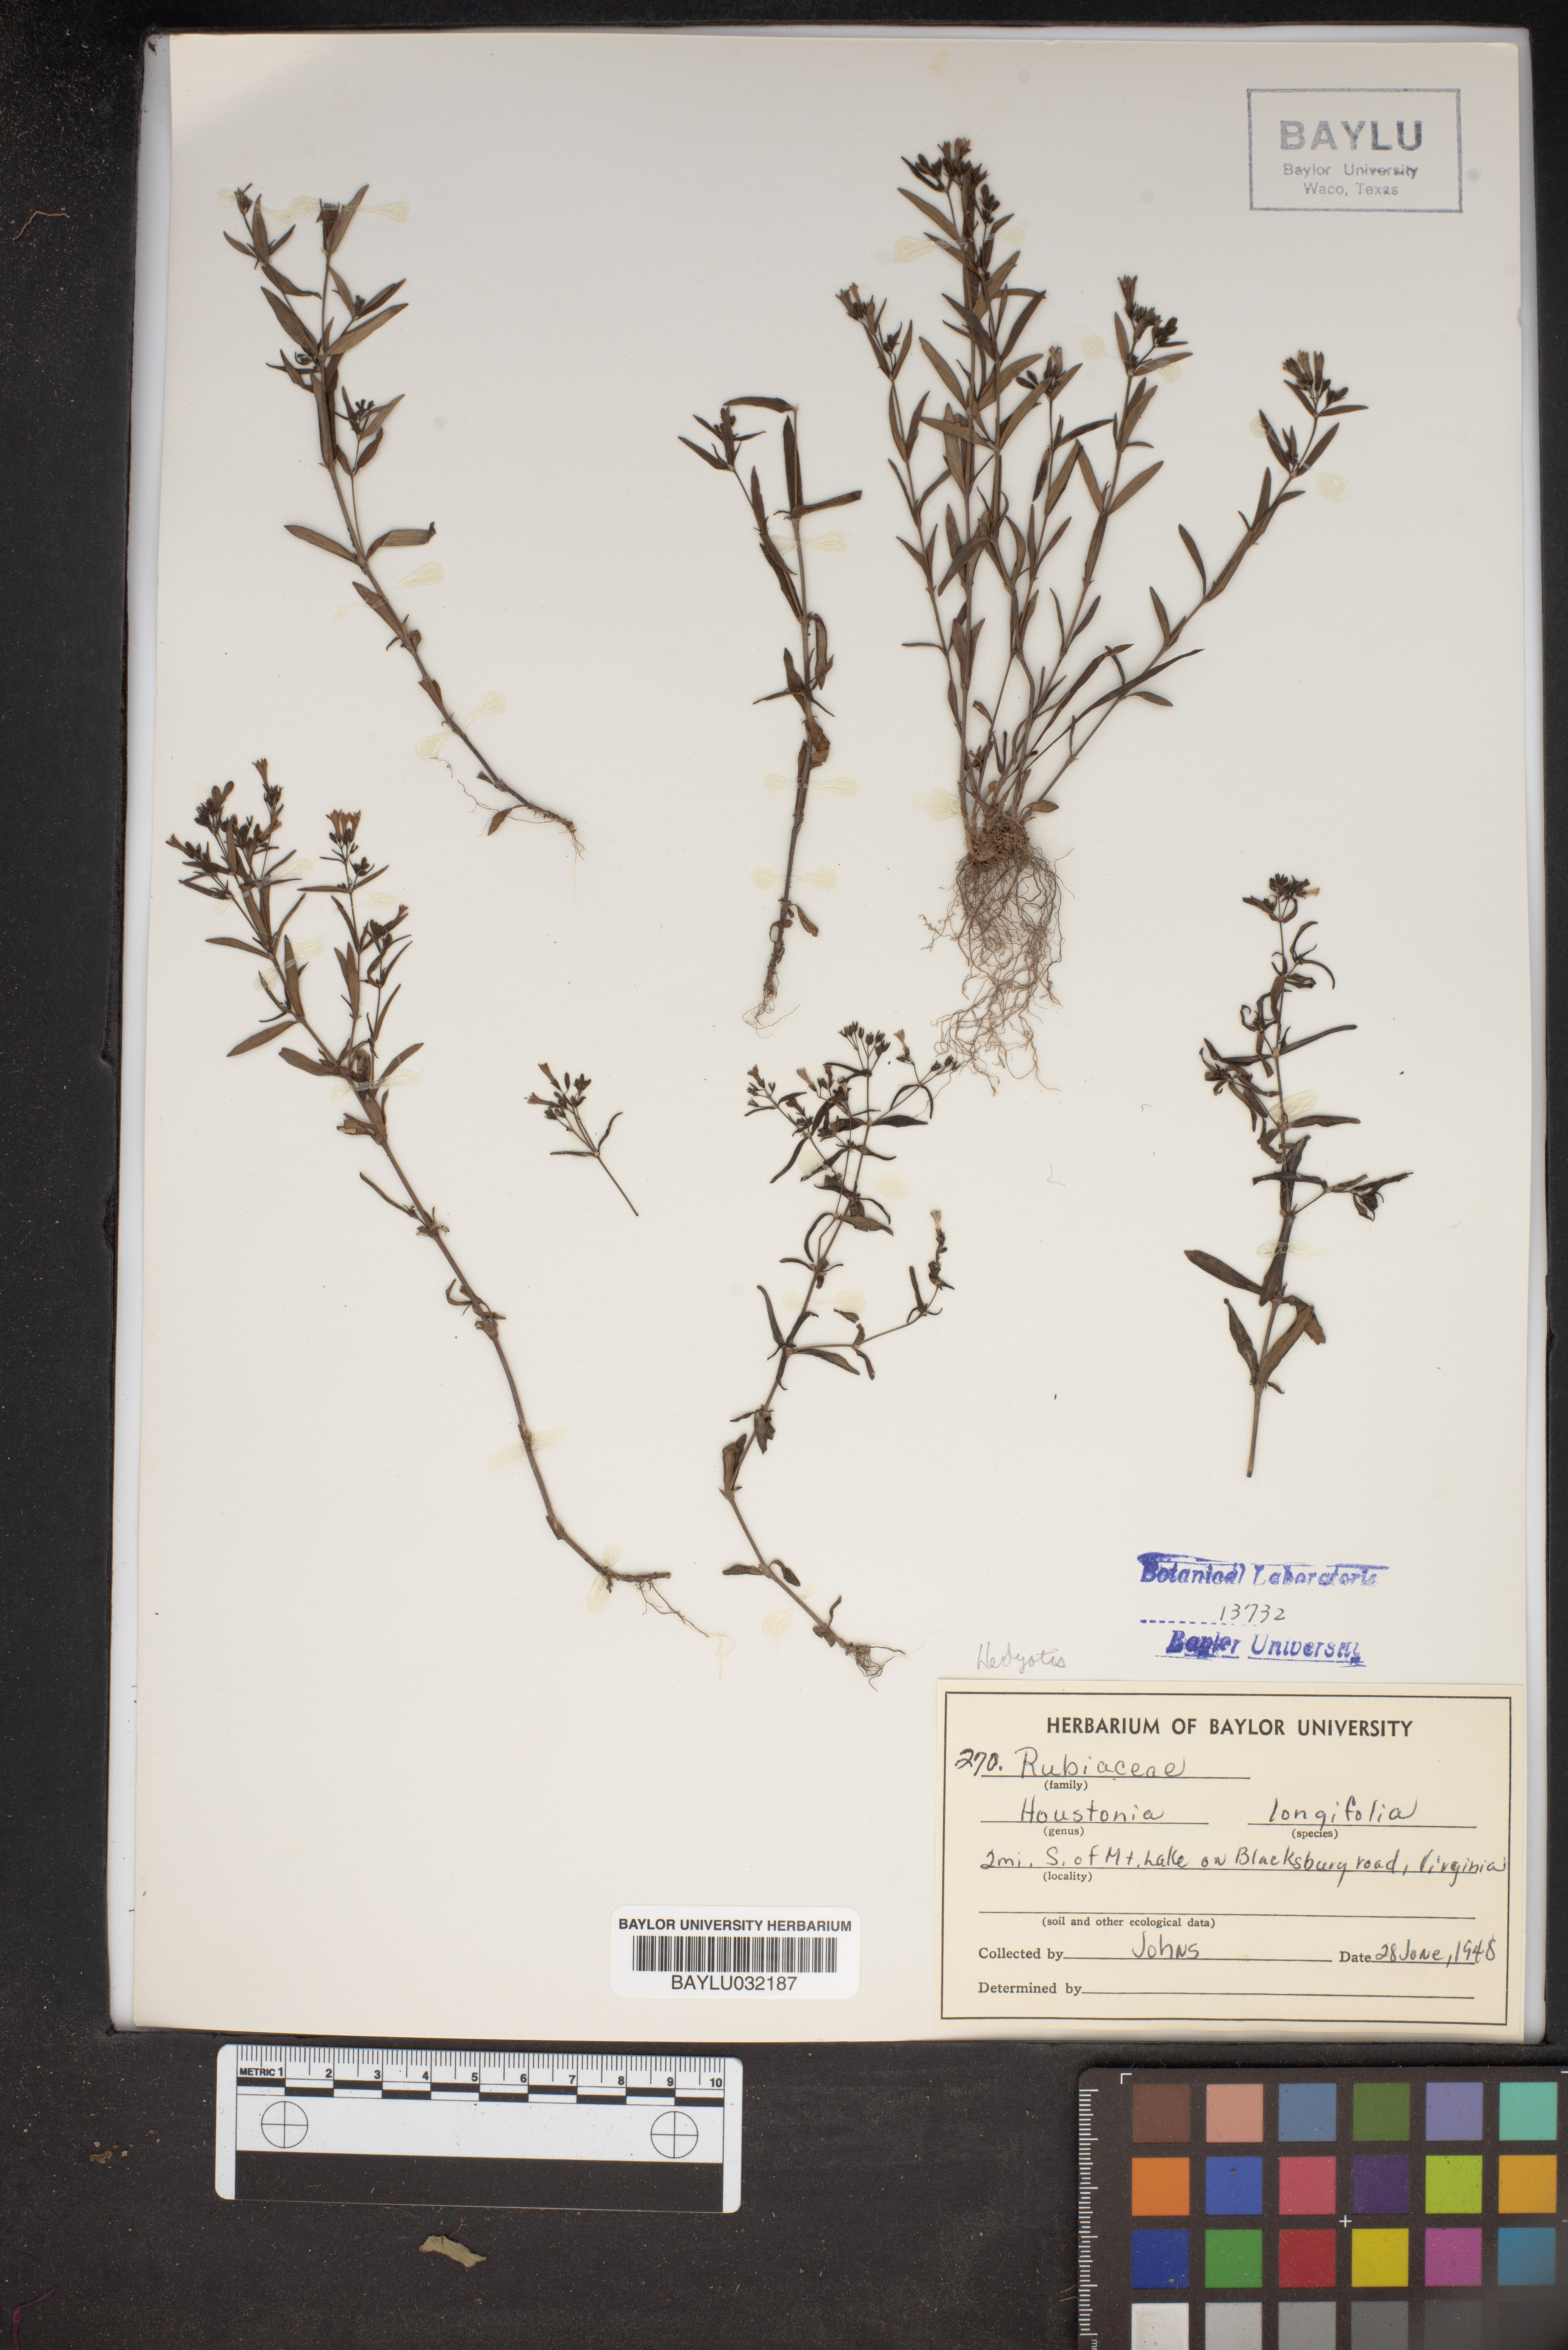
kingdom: Plantae
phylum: Tracheophyta
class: Magnoliopsida
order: Gentianales
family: Rubiaceae
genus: Houstonia
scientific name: Houstonia longifolia
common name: Long-leaved bluets
